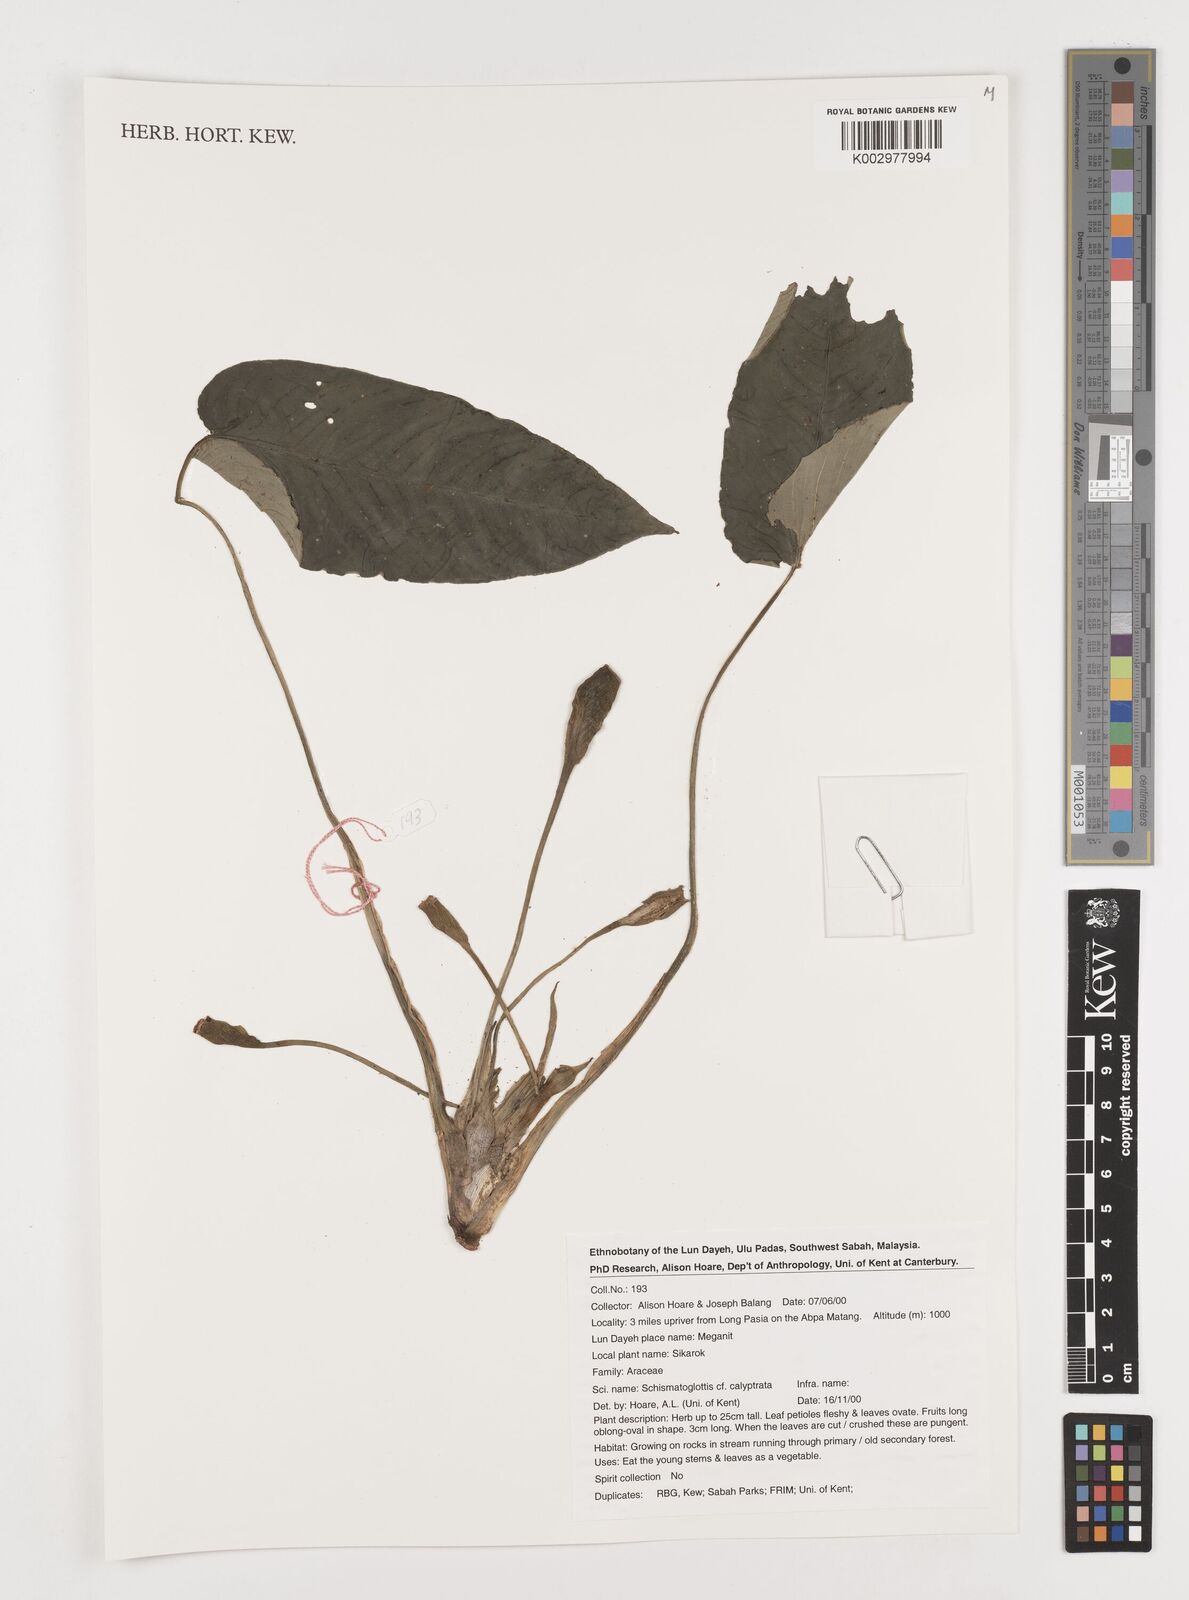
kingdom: Plantae
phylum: Tracheophyta
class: Liliopsida
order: Alismatales
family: Araceae
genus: Schismatoglottis
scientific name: Schismatoglottis calyptrata
